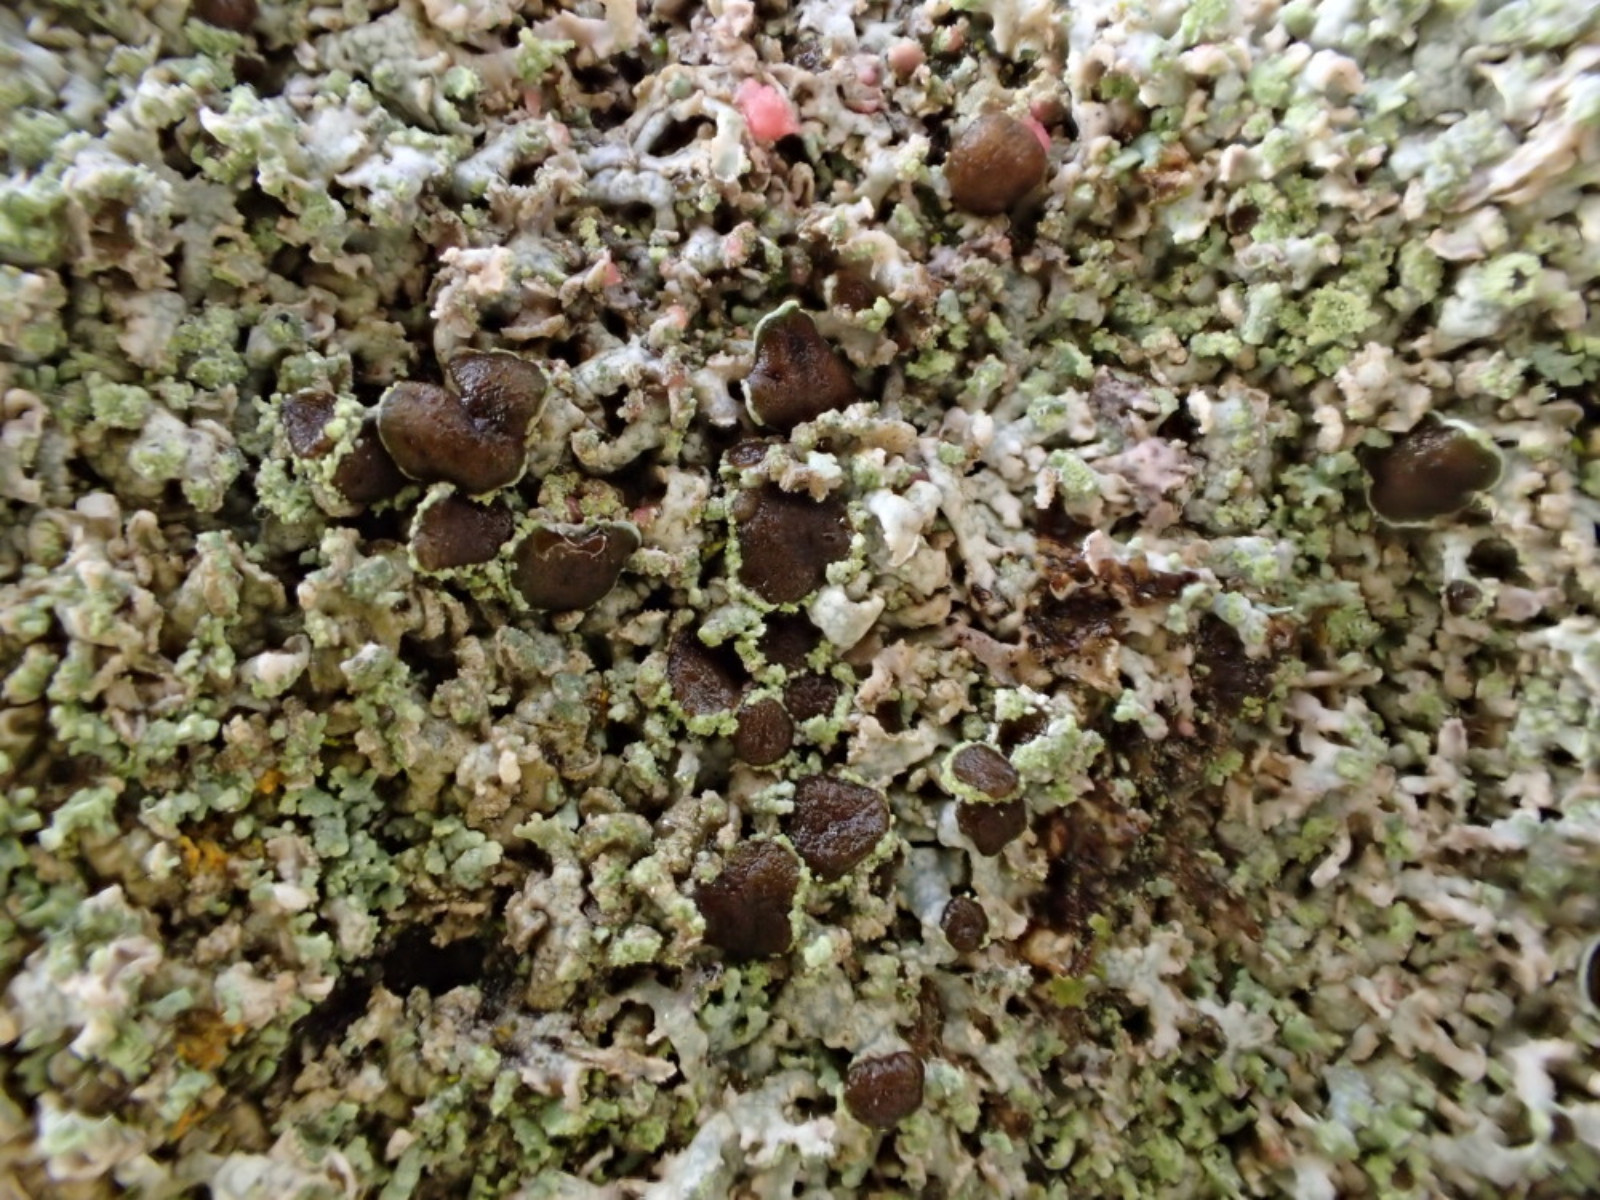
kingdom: Fungi
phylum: Ascomycota
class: Lecanoromycetes
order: Caliciales
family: Physciaceae
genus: Physcia
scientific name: Physcia dubia
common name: fuglestens-rosetlav
